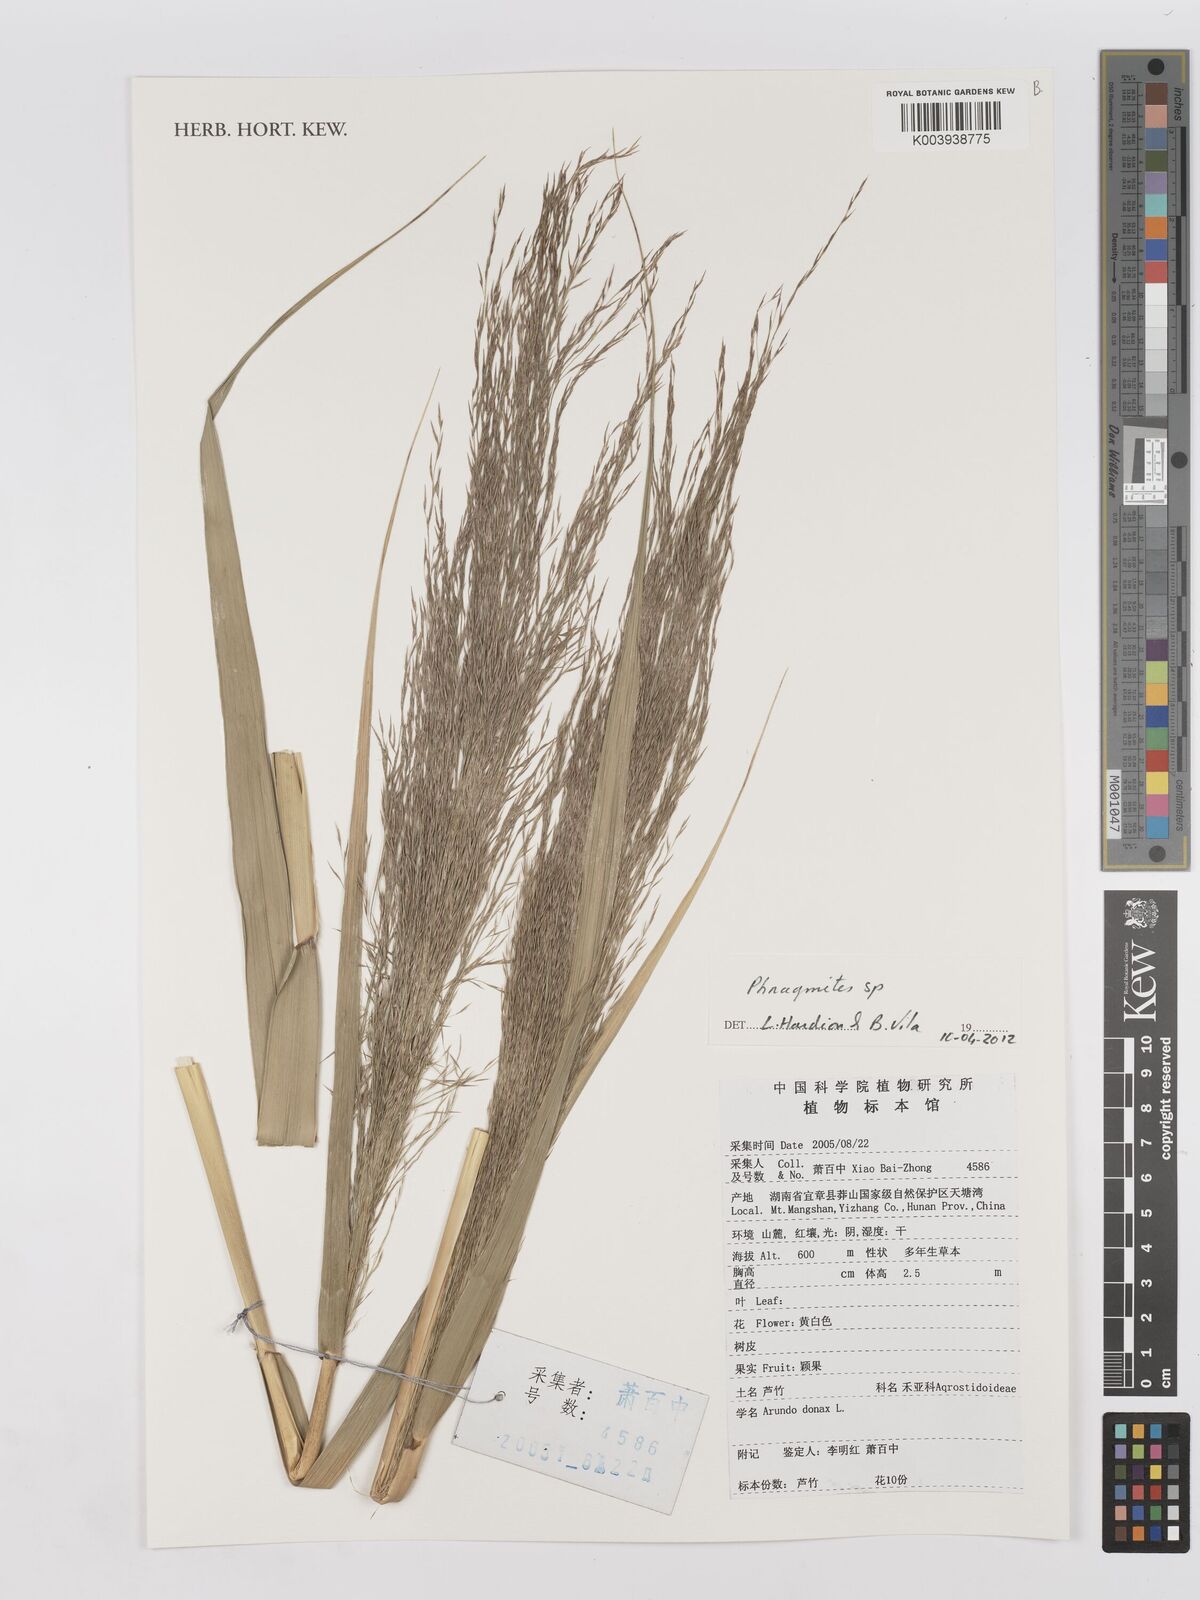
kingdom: Plantae
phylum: Tracheophyta
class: Liliopsida
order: Poales
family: Poaceae
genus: Phragmites
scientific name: Phragmites
